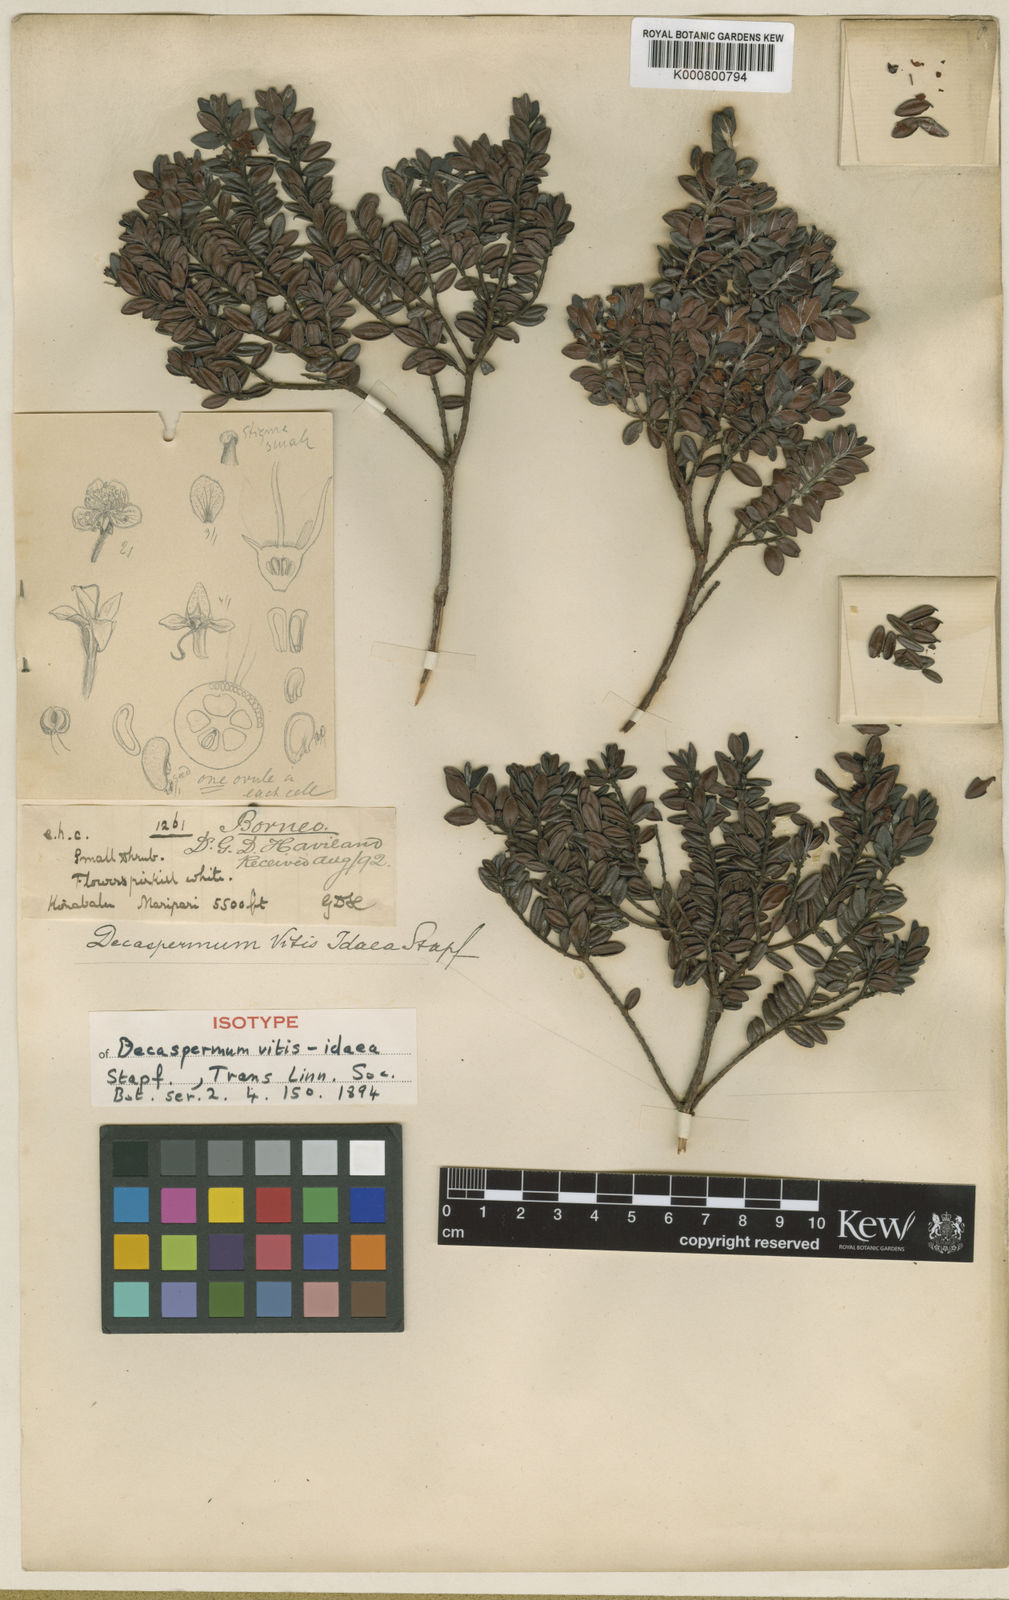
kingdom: Plantae
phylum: Tracheophyta
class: Magnoliopsida
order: Myrtales
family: Myrtaceae
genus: Decaspermum
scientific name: Decaspermum vitis-idaea
